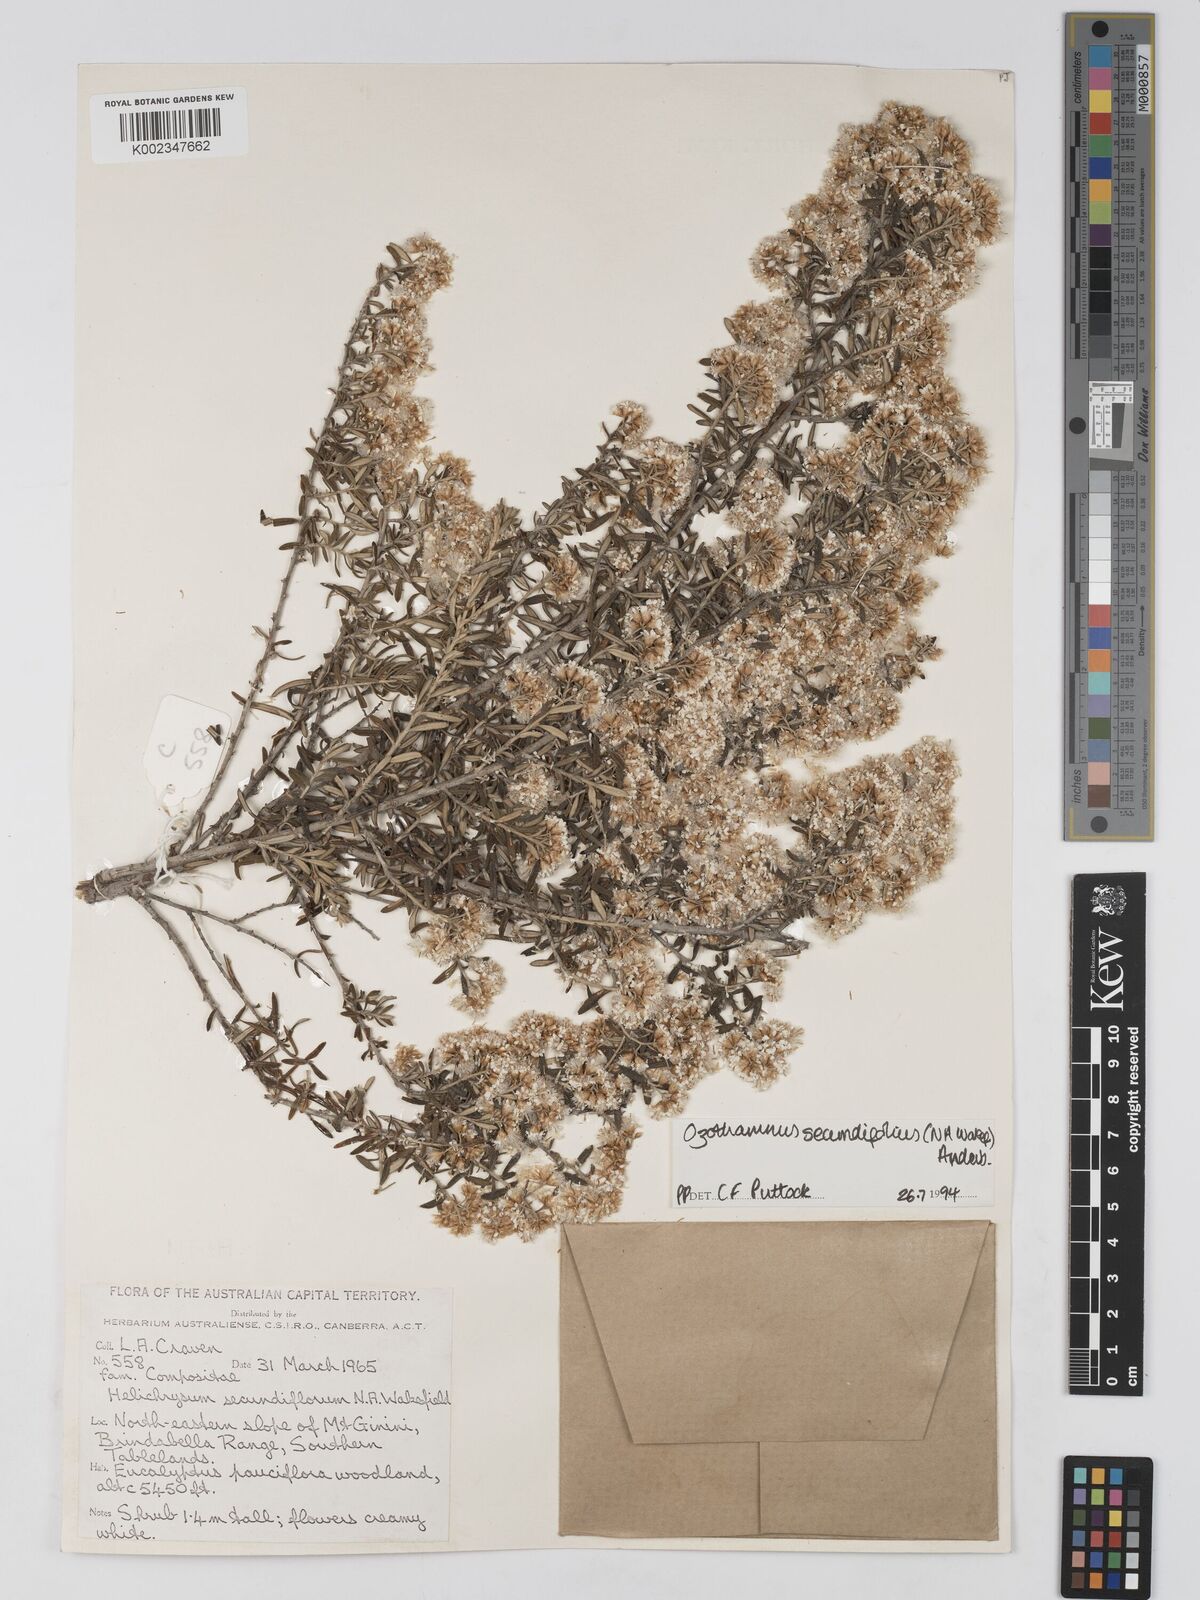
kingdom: Plantae
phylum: Tracheophyta
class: Magnoliopsida
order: Asterales
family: Asteraceae
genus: Ozothamnus
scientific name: Ozothamnus secundiflorus
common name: Cascade everlasting
